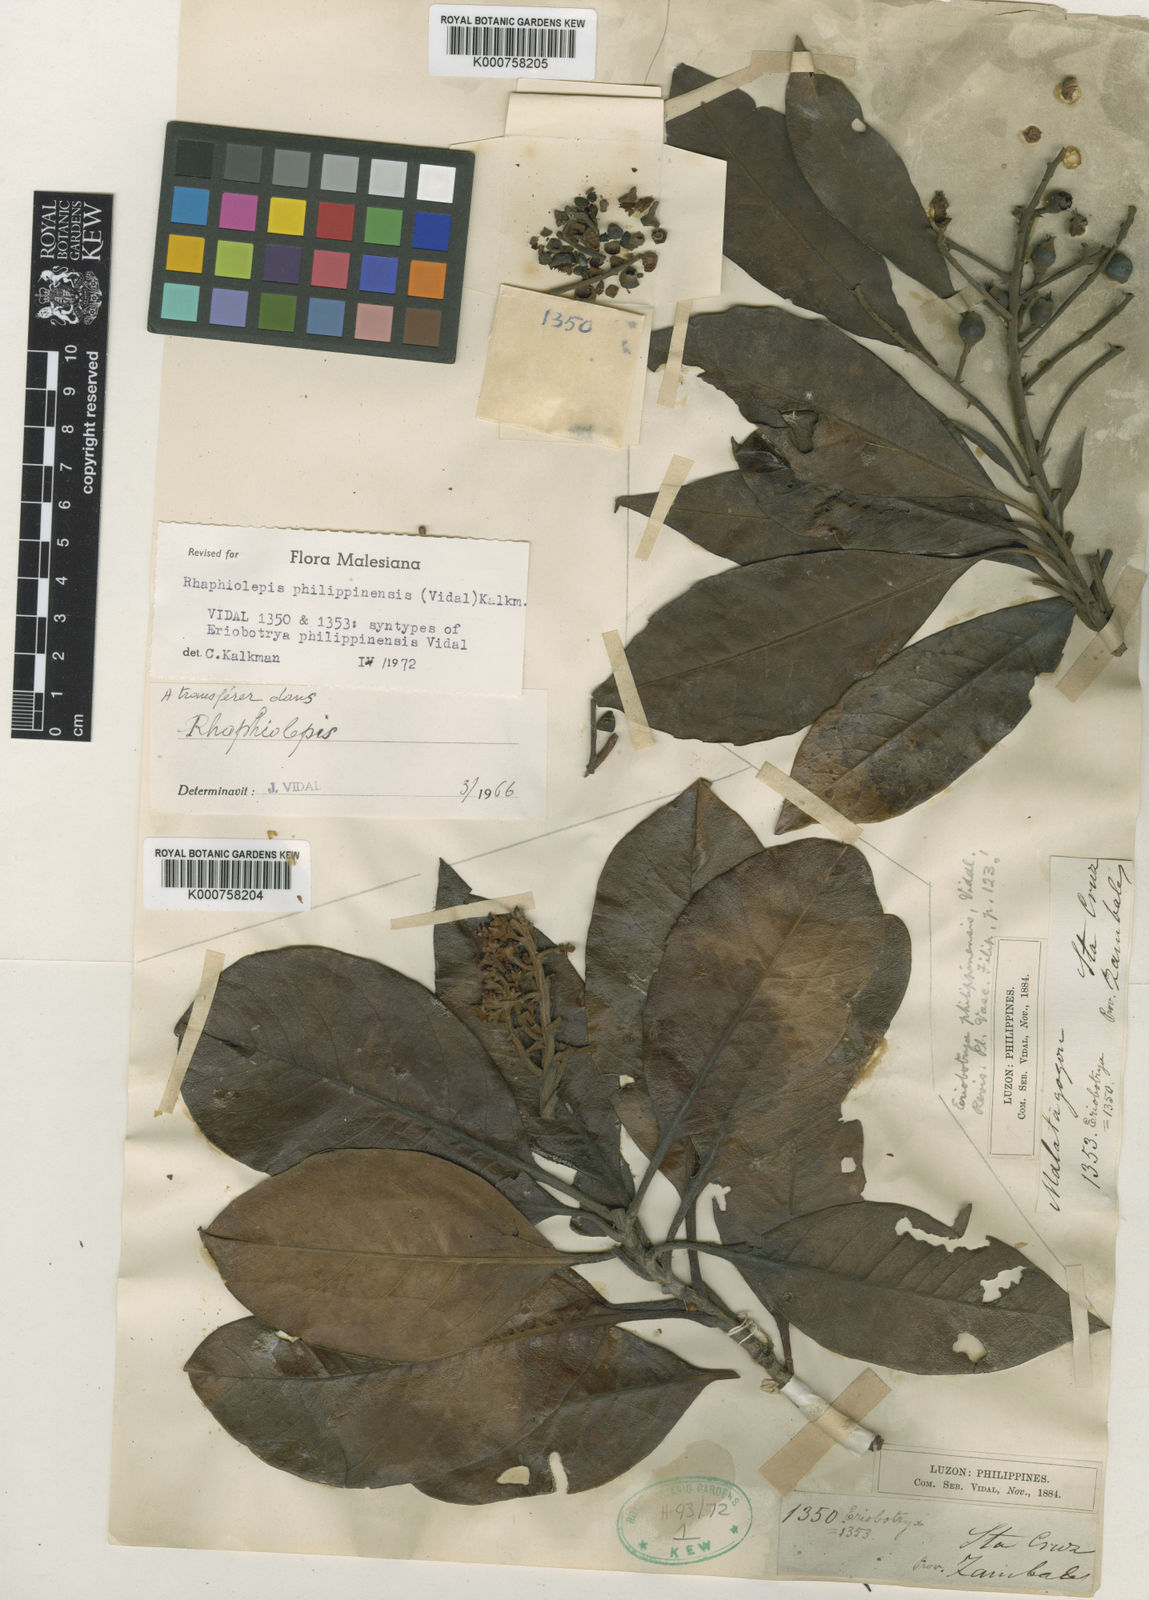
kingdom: Plantae
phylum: Tracheophyta
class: Magnoliopsida
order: Rosales
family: Rosaceae
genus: Rhaphiolepis
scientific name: Rhaphiolepis philippinensis
